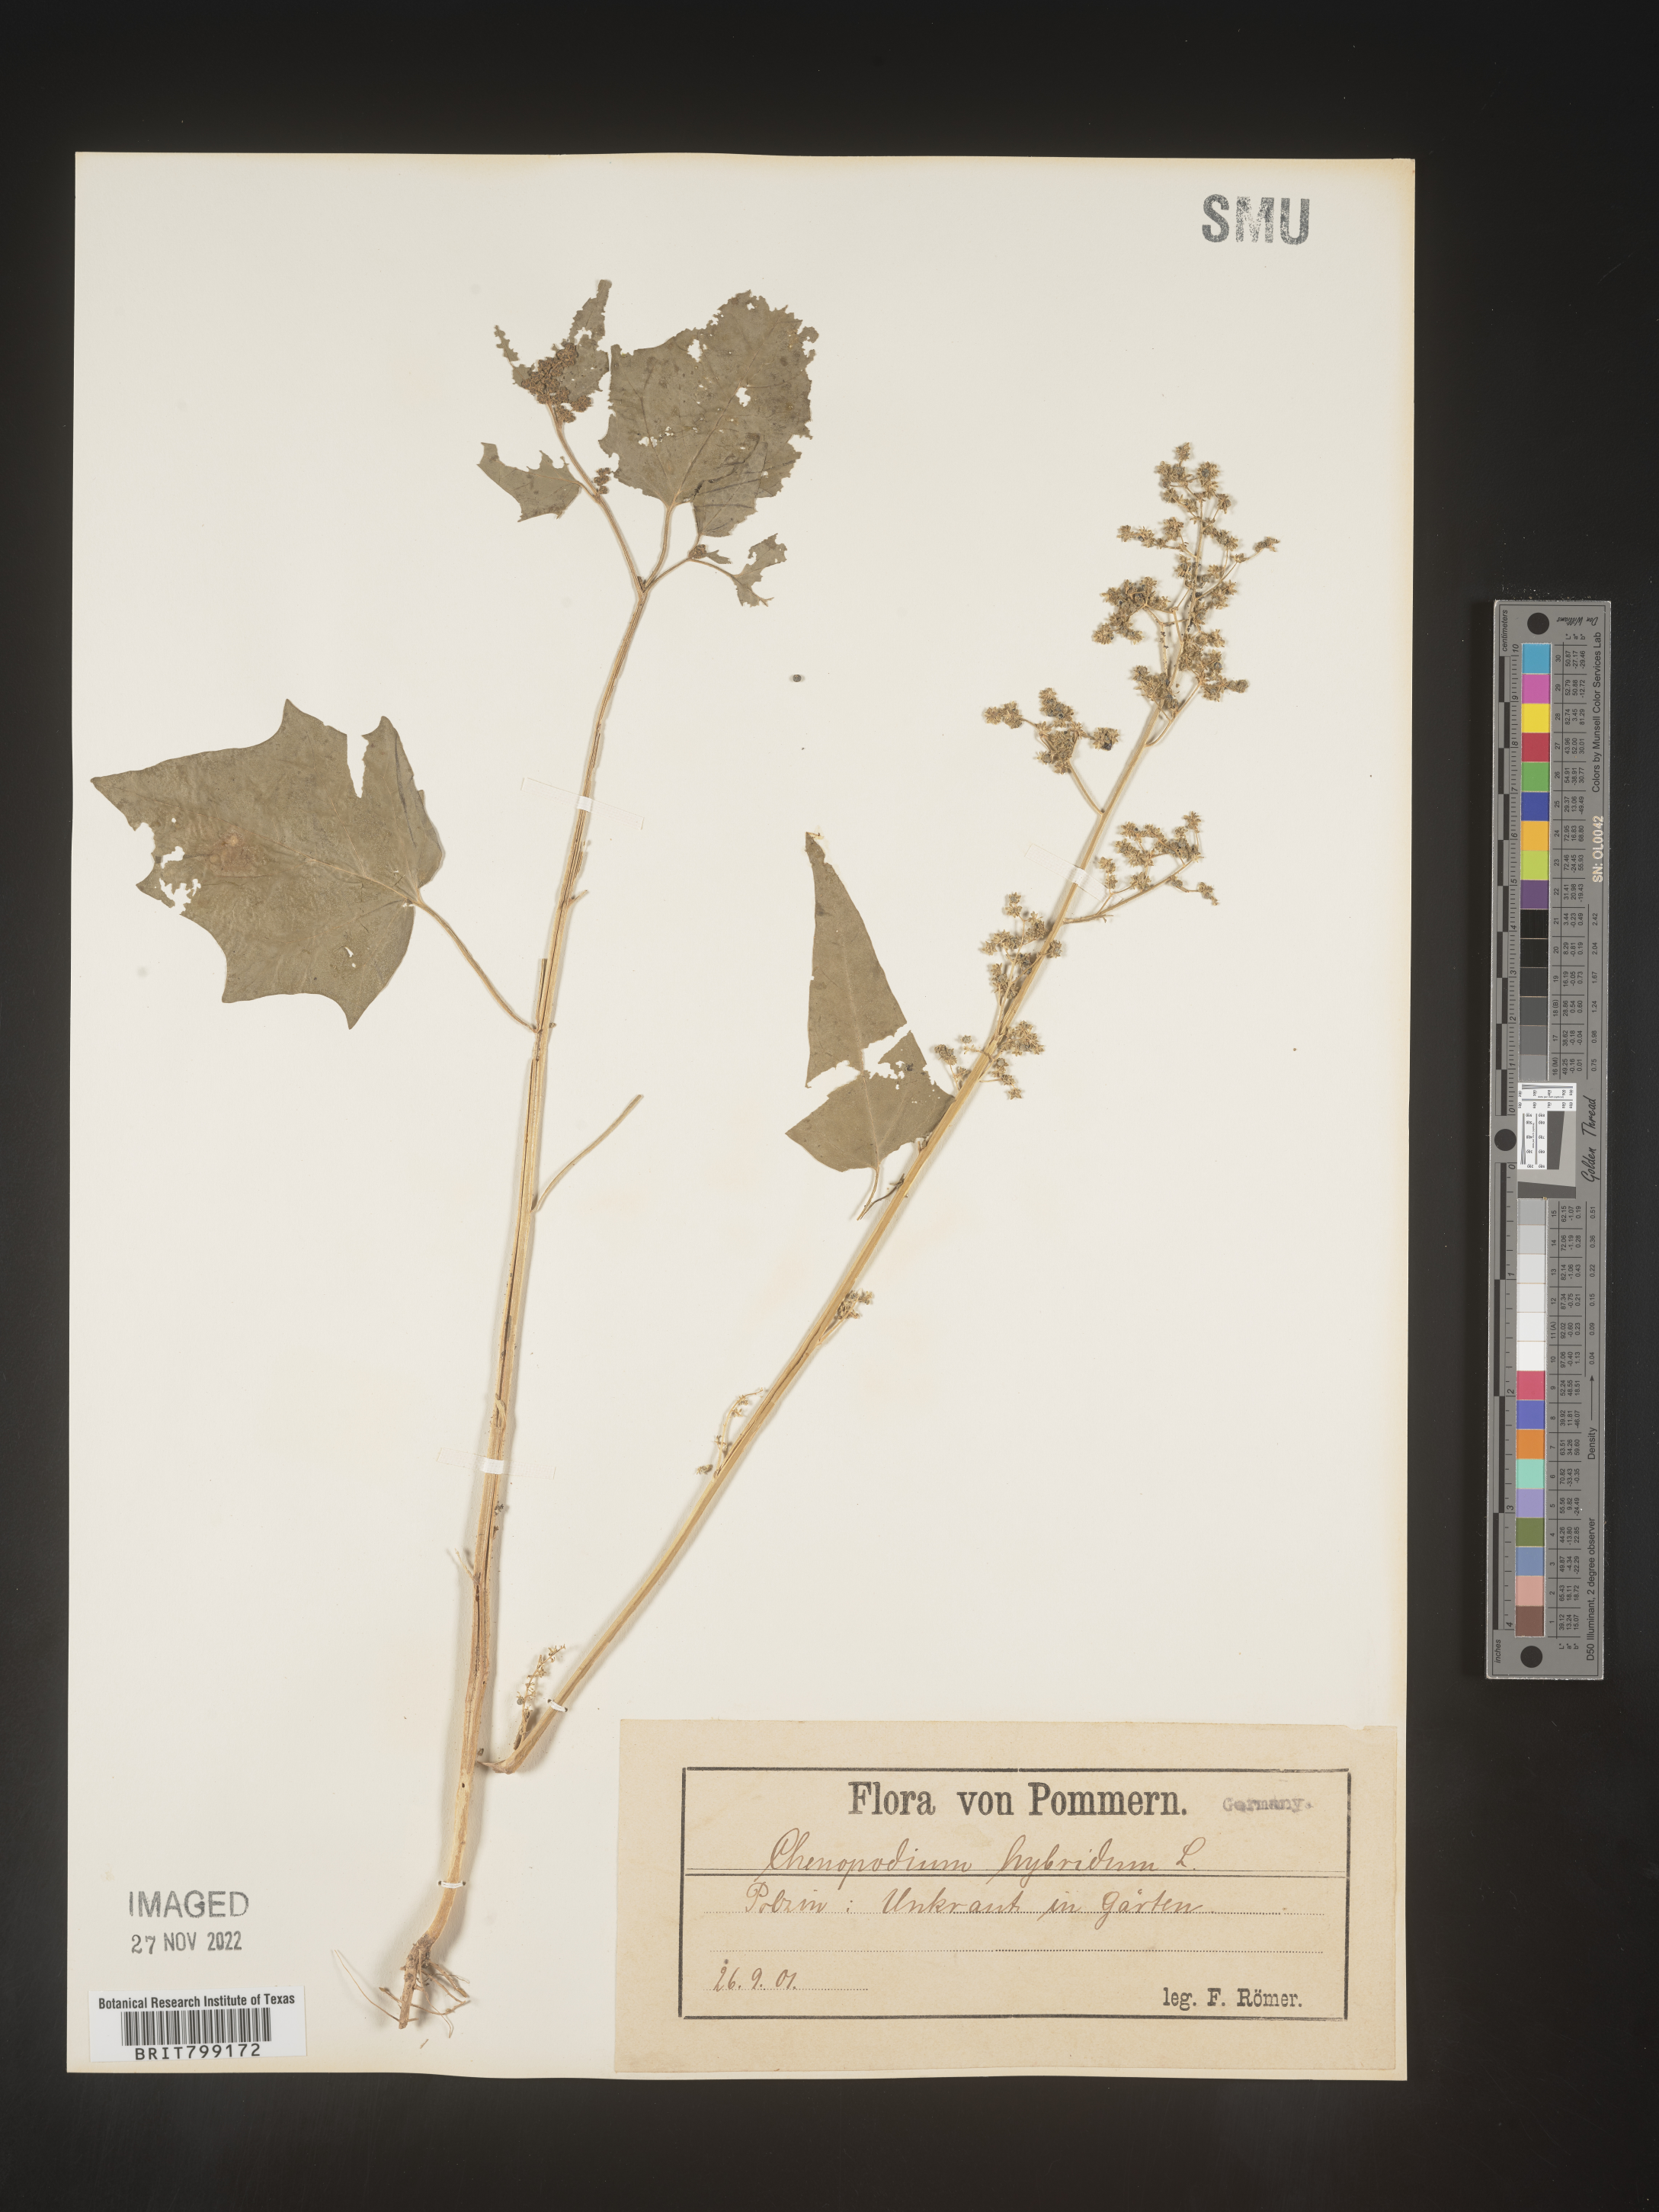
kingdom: Plantae
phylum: Tracheophyta
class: Magnoliopsida
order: Caryophyllales
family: Amaranthaceae
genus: Chenopodium
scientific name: Chenopodium
